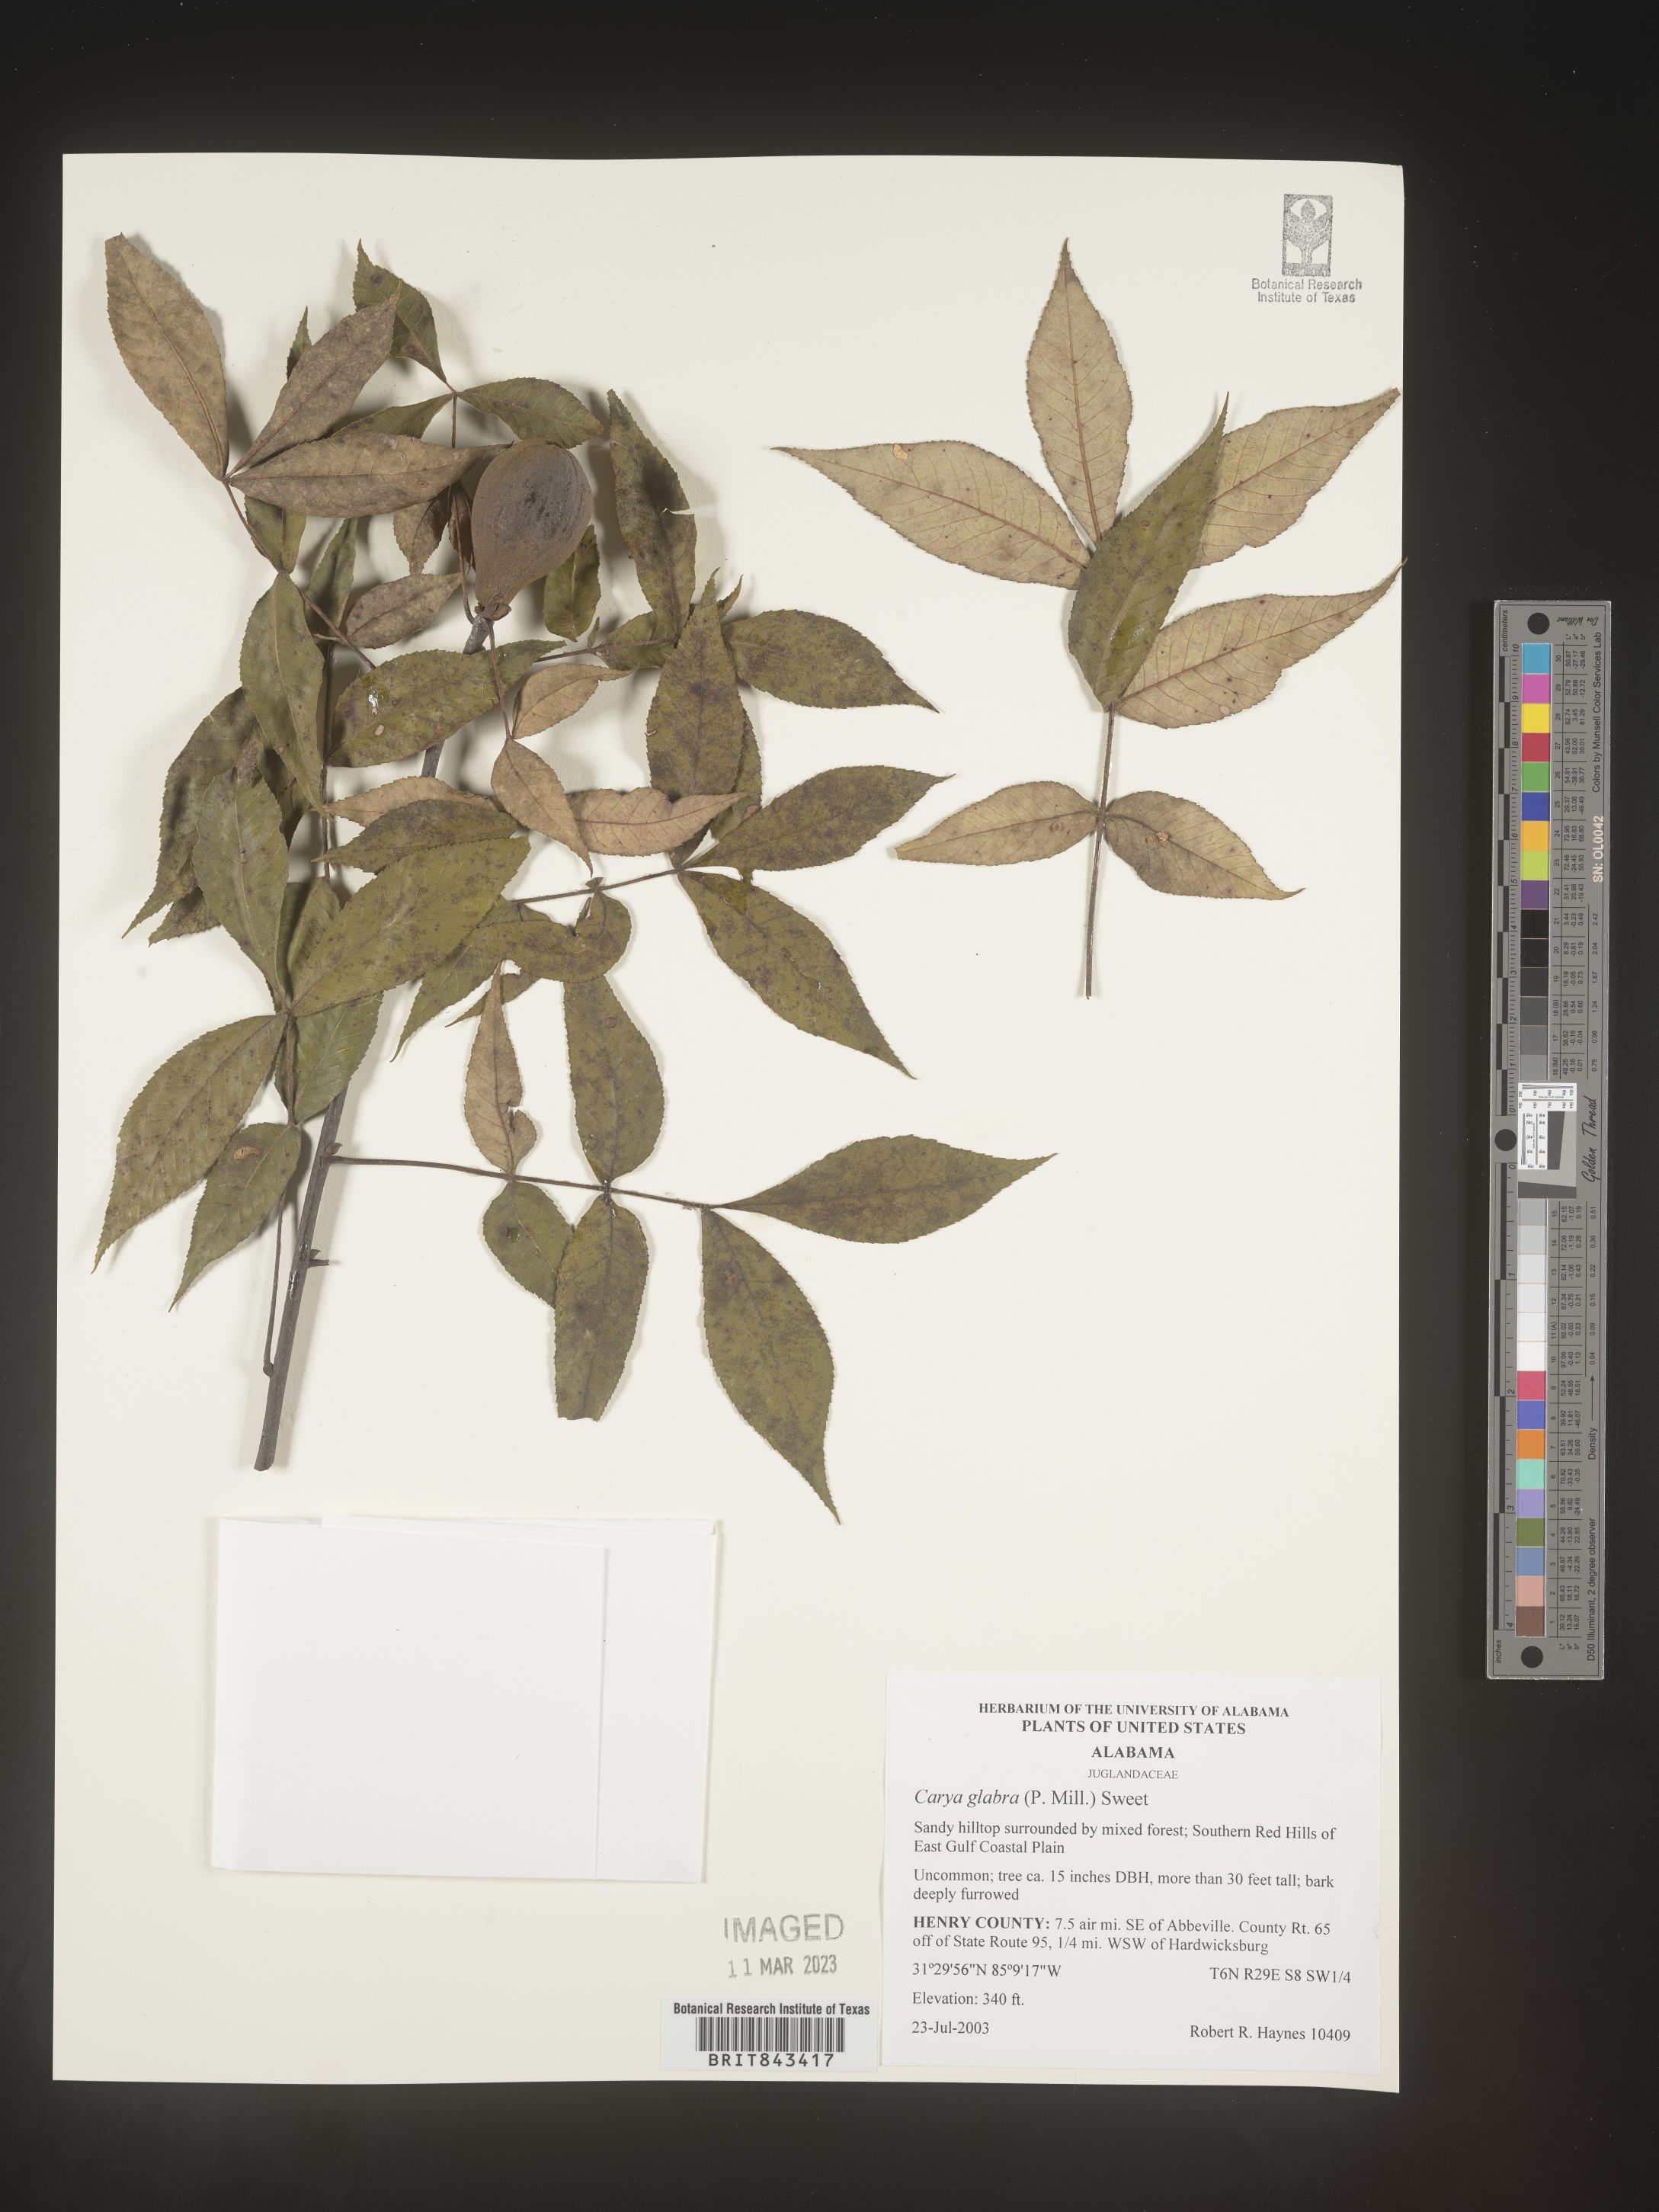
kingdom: Plantae
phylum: Tracheophyta
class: Magnoliopsida
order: Fagales
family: Juglandaceae
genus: Carya
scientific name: Carya glabra
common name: Pignut hickory
